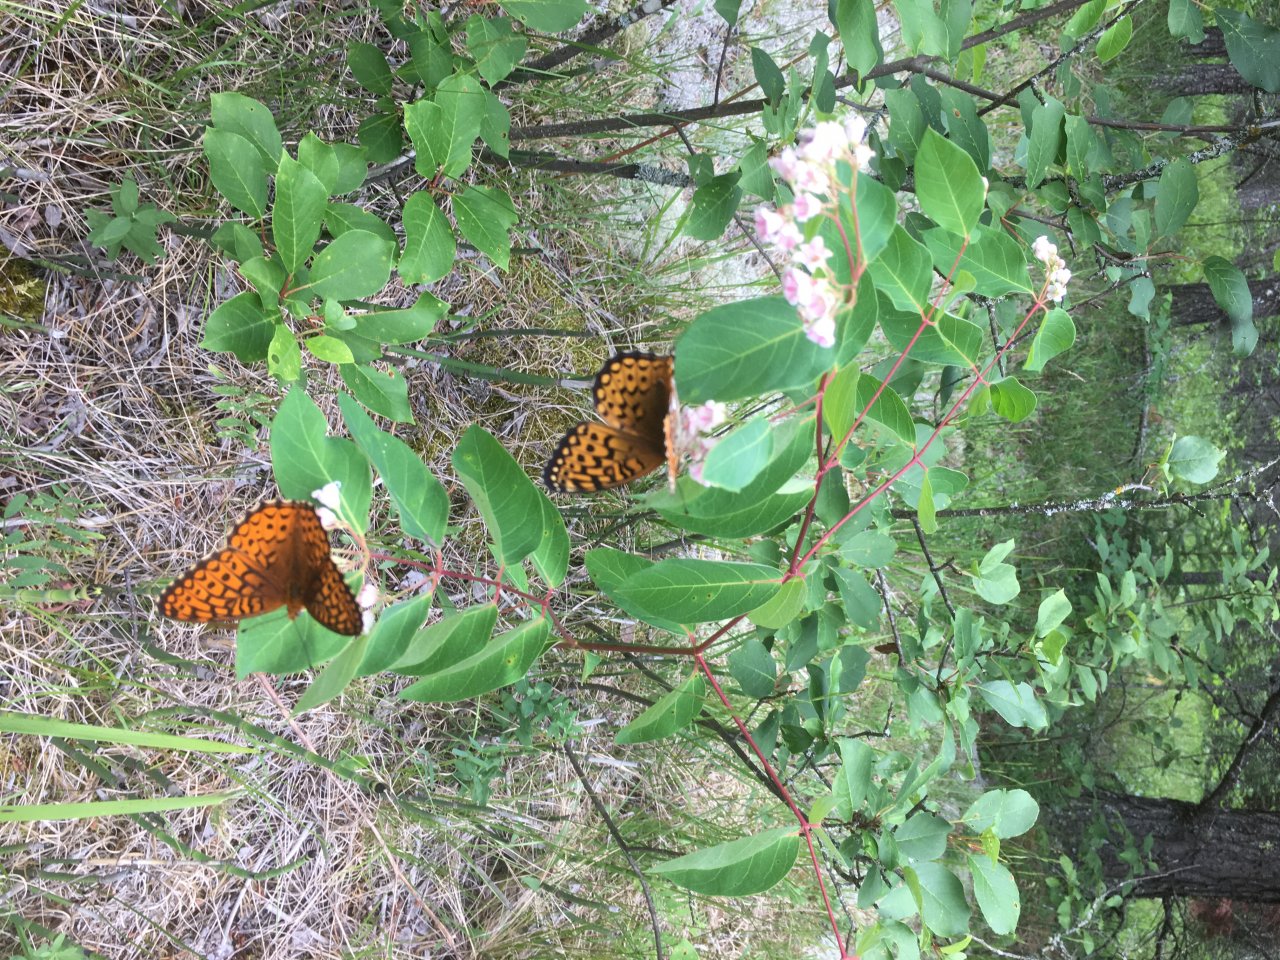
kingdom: Animalia
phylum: Arthropoda
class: Insecta
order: Lepidoptera
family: Nymphalidae
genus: Speyeria
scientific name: Speyeria atlantis
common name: Atlantis Fritillary
